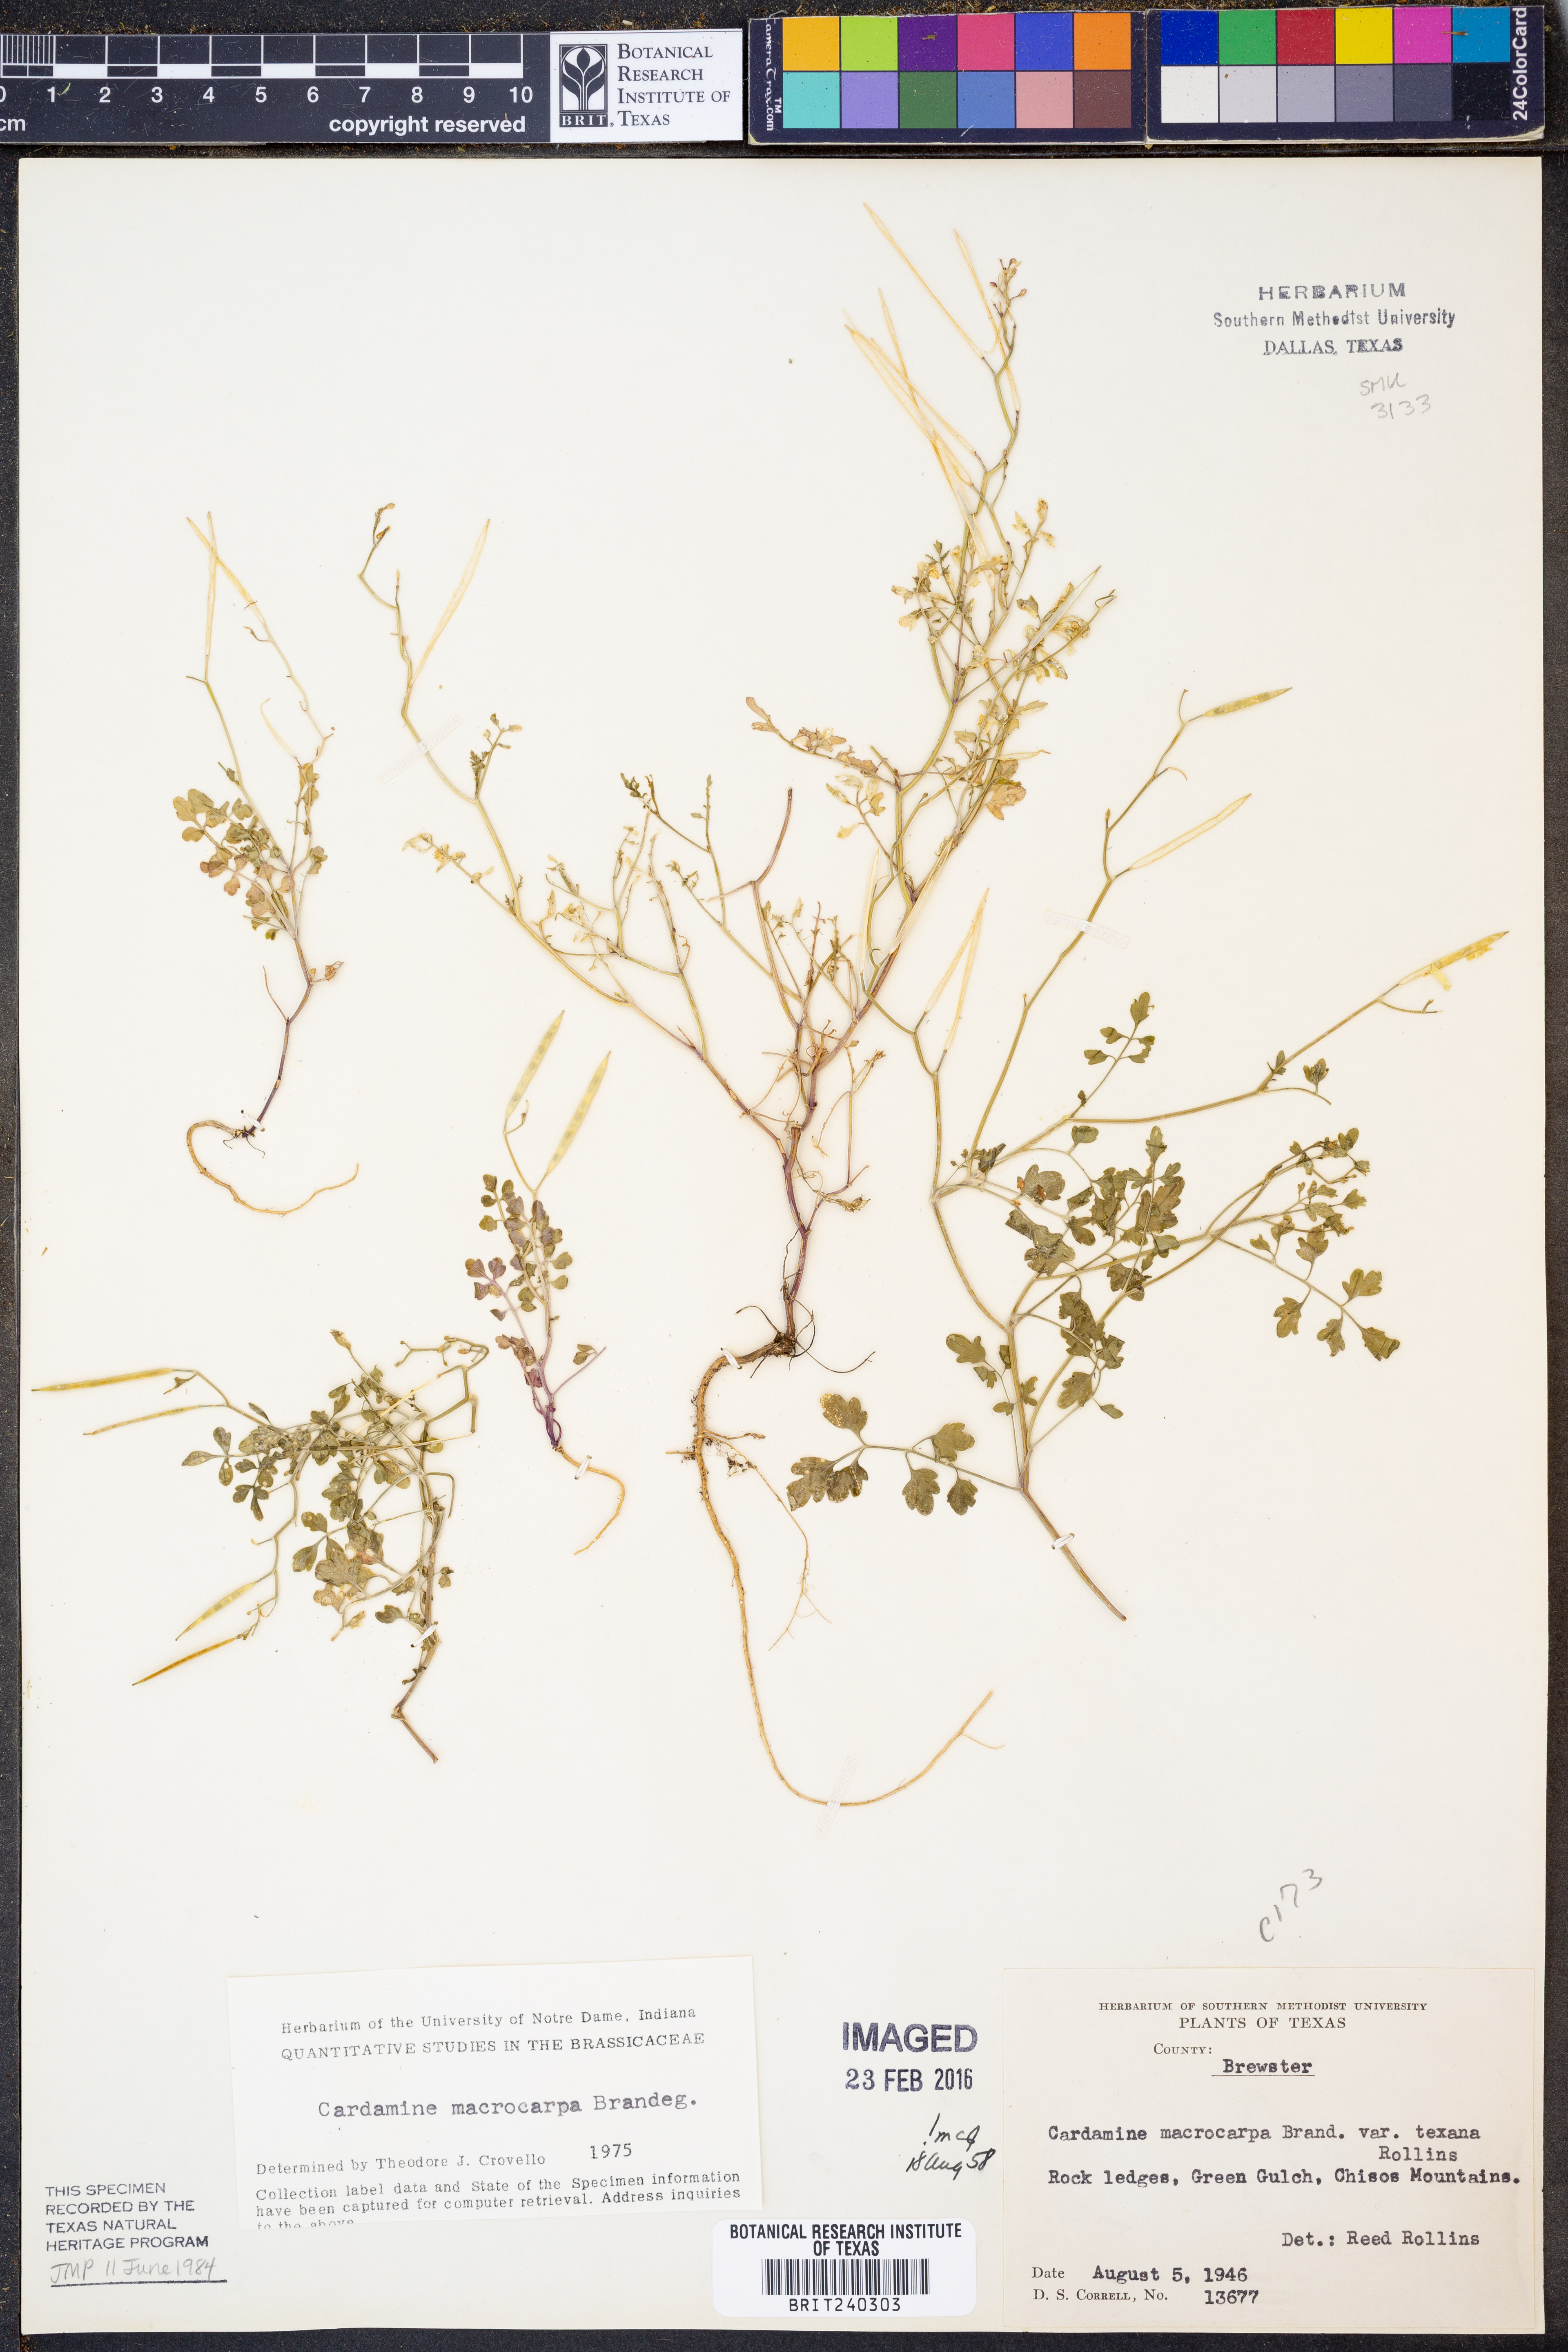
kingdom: Plantae
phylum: Tracheophyta
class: Magnoliopsida
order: Brassicales
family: Brassicaceae
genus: Cardamine
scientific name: Cardamine macrocarpa
